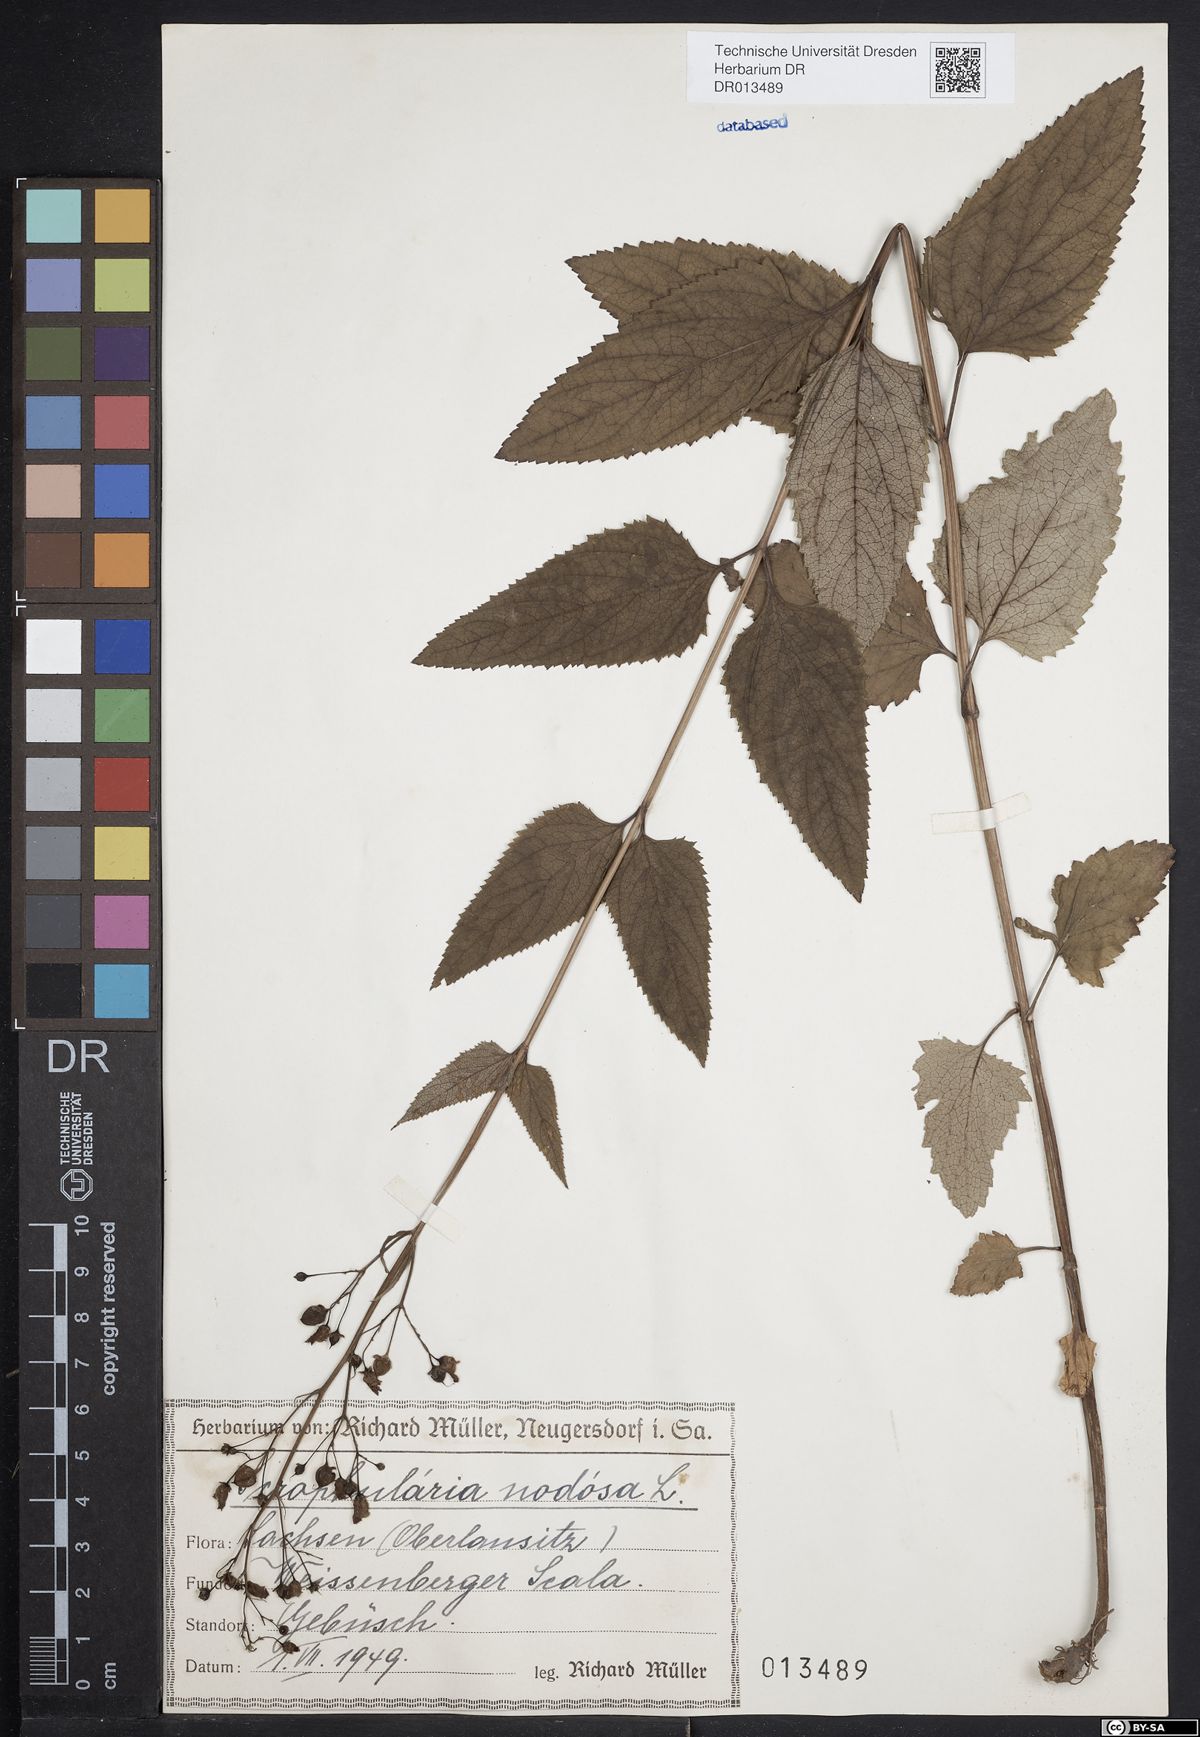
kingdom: Plantae
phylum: Tracheophyta
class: Magnoliopsida
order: Lamiales
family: Scrophulariaceae
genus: Scrophularia
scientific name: Scrophularia nodosa
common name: Common figwort
